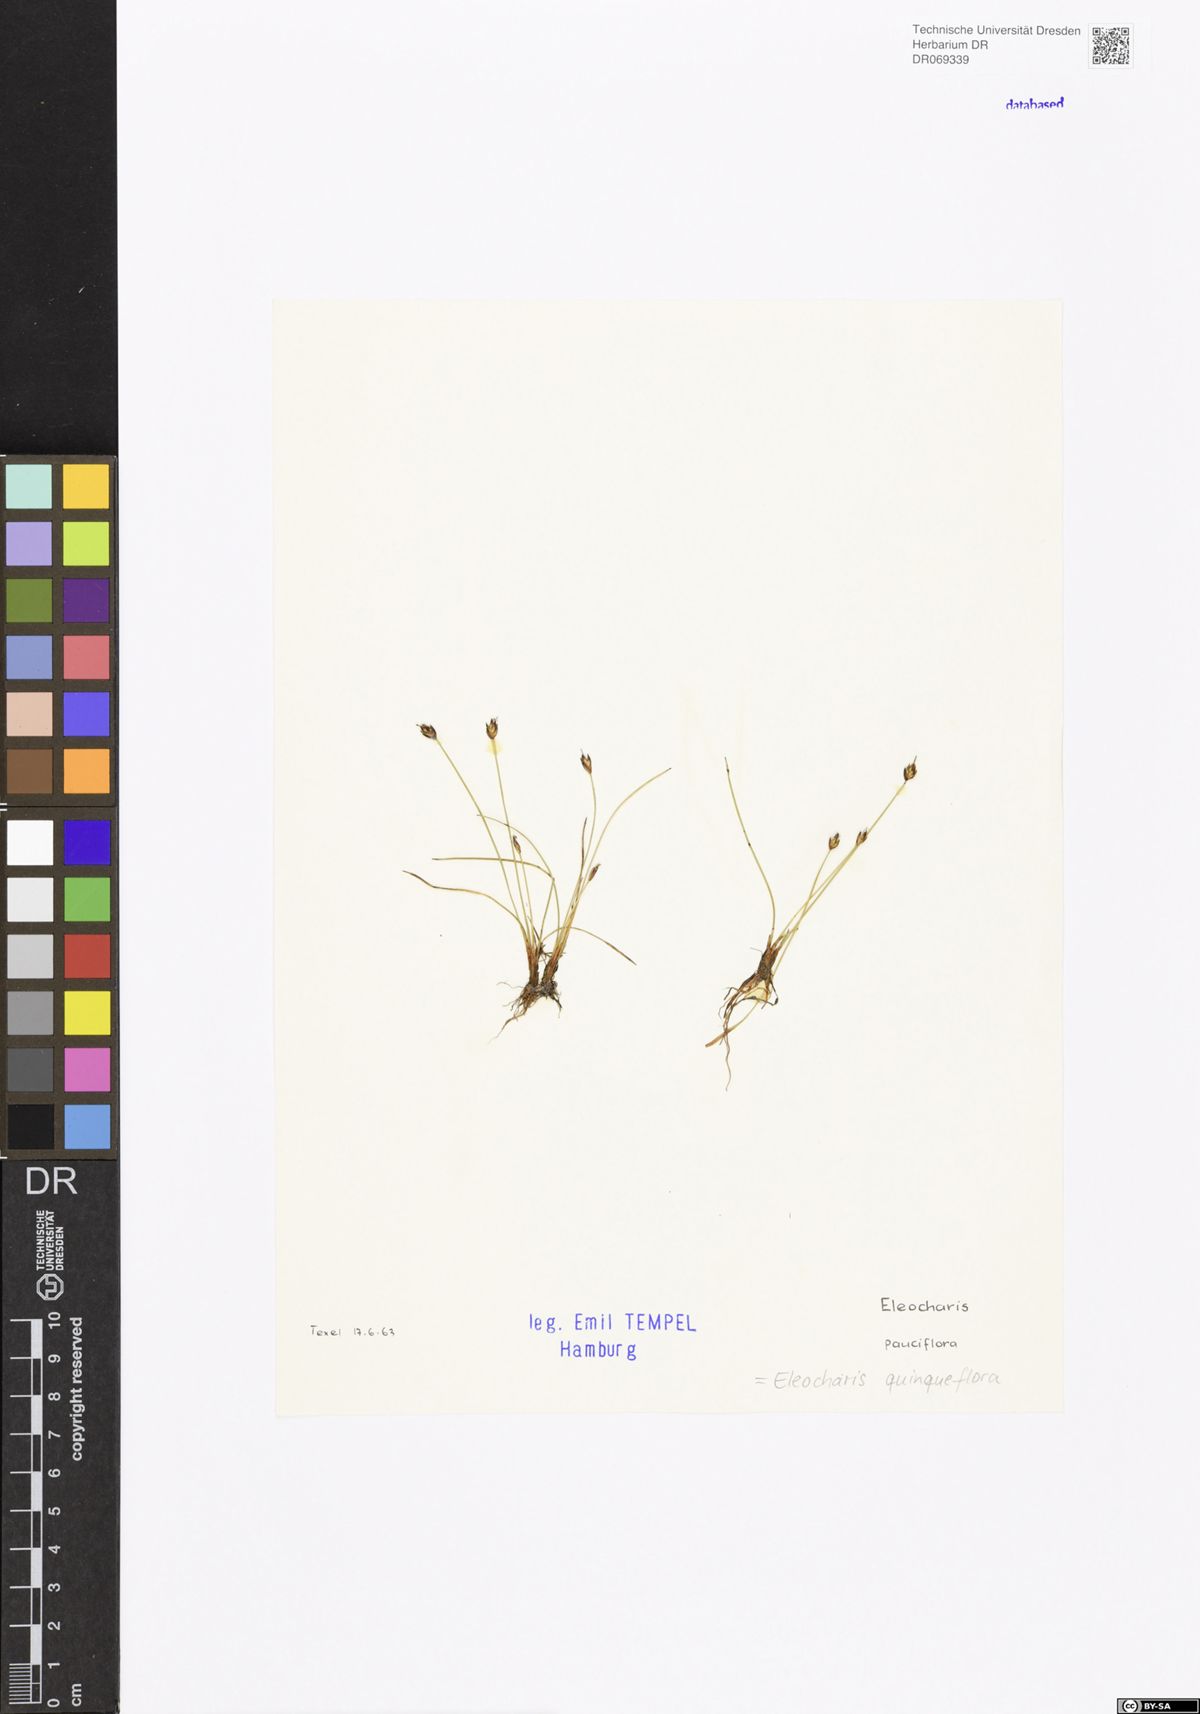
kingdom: Plantae
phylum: Tracheophyta
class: Liliopsida
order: Poales
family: Cyperaceae
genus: Eleocharis
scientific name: Eleocharis quinqueflora
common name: Few-flowered spike-rush
